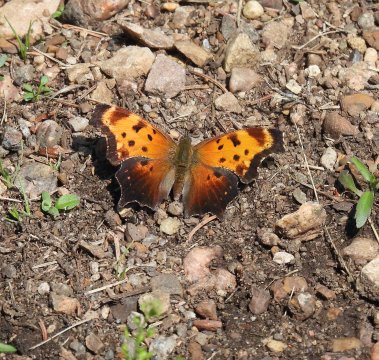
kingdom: Animalia
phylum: Arthropoda
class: Insecta
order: Lepidoptera
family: Nymphalidae
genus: Polygonia
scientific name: Polygonia progne
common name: Gray Comma
